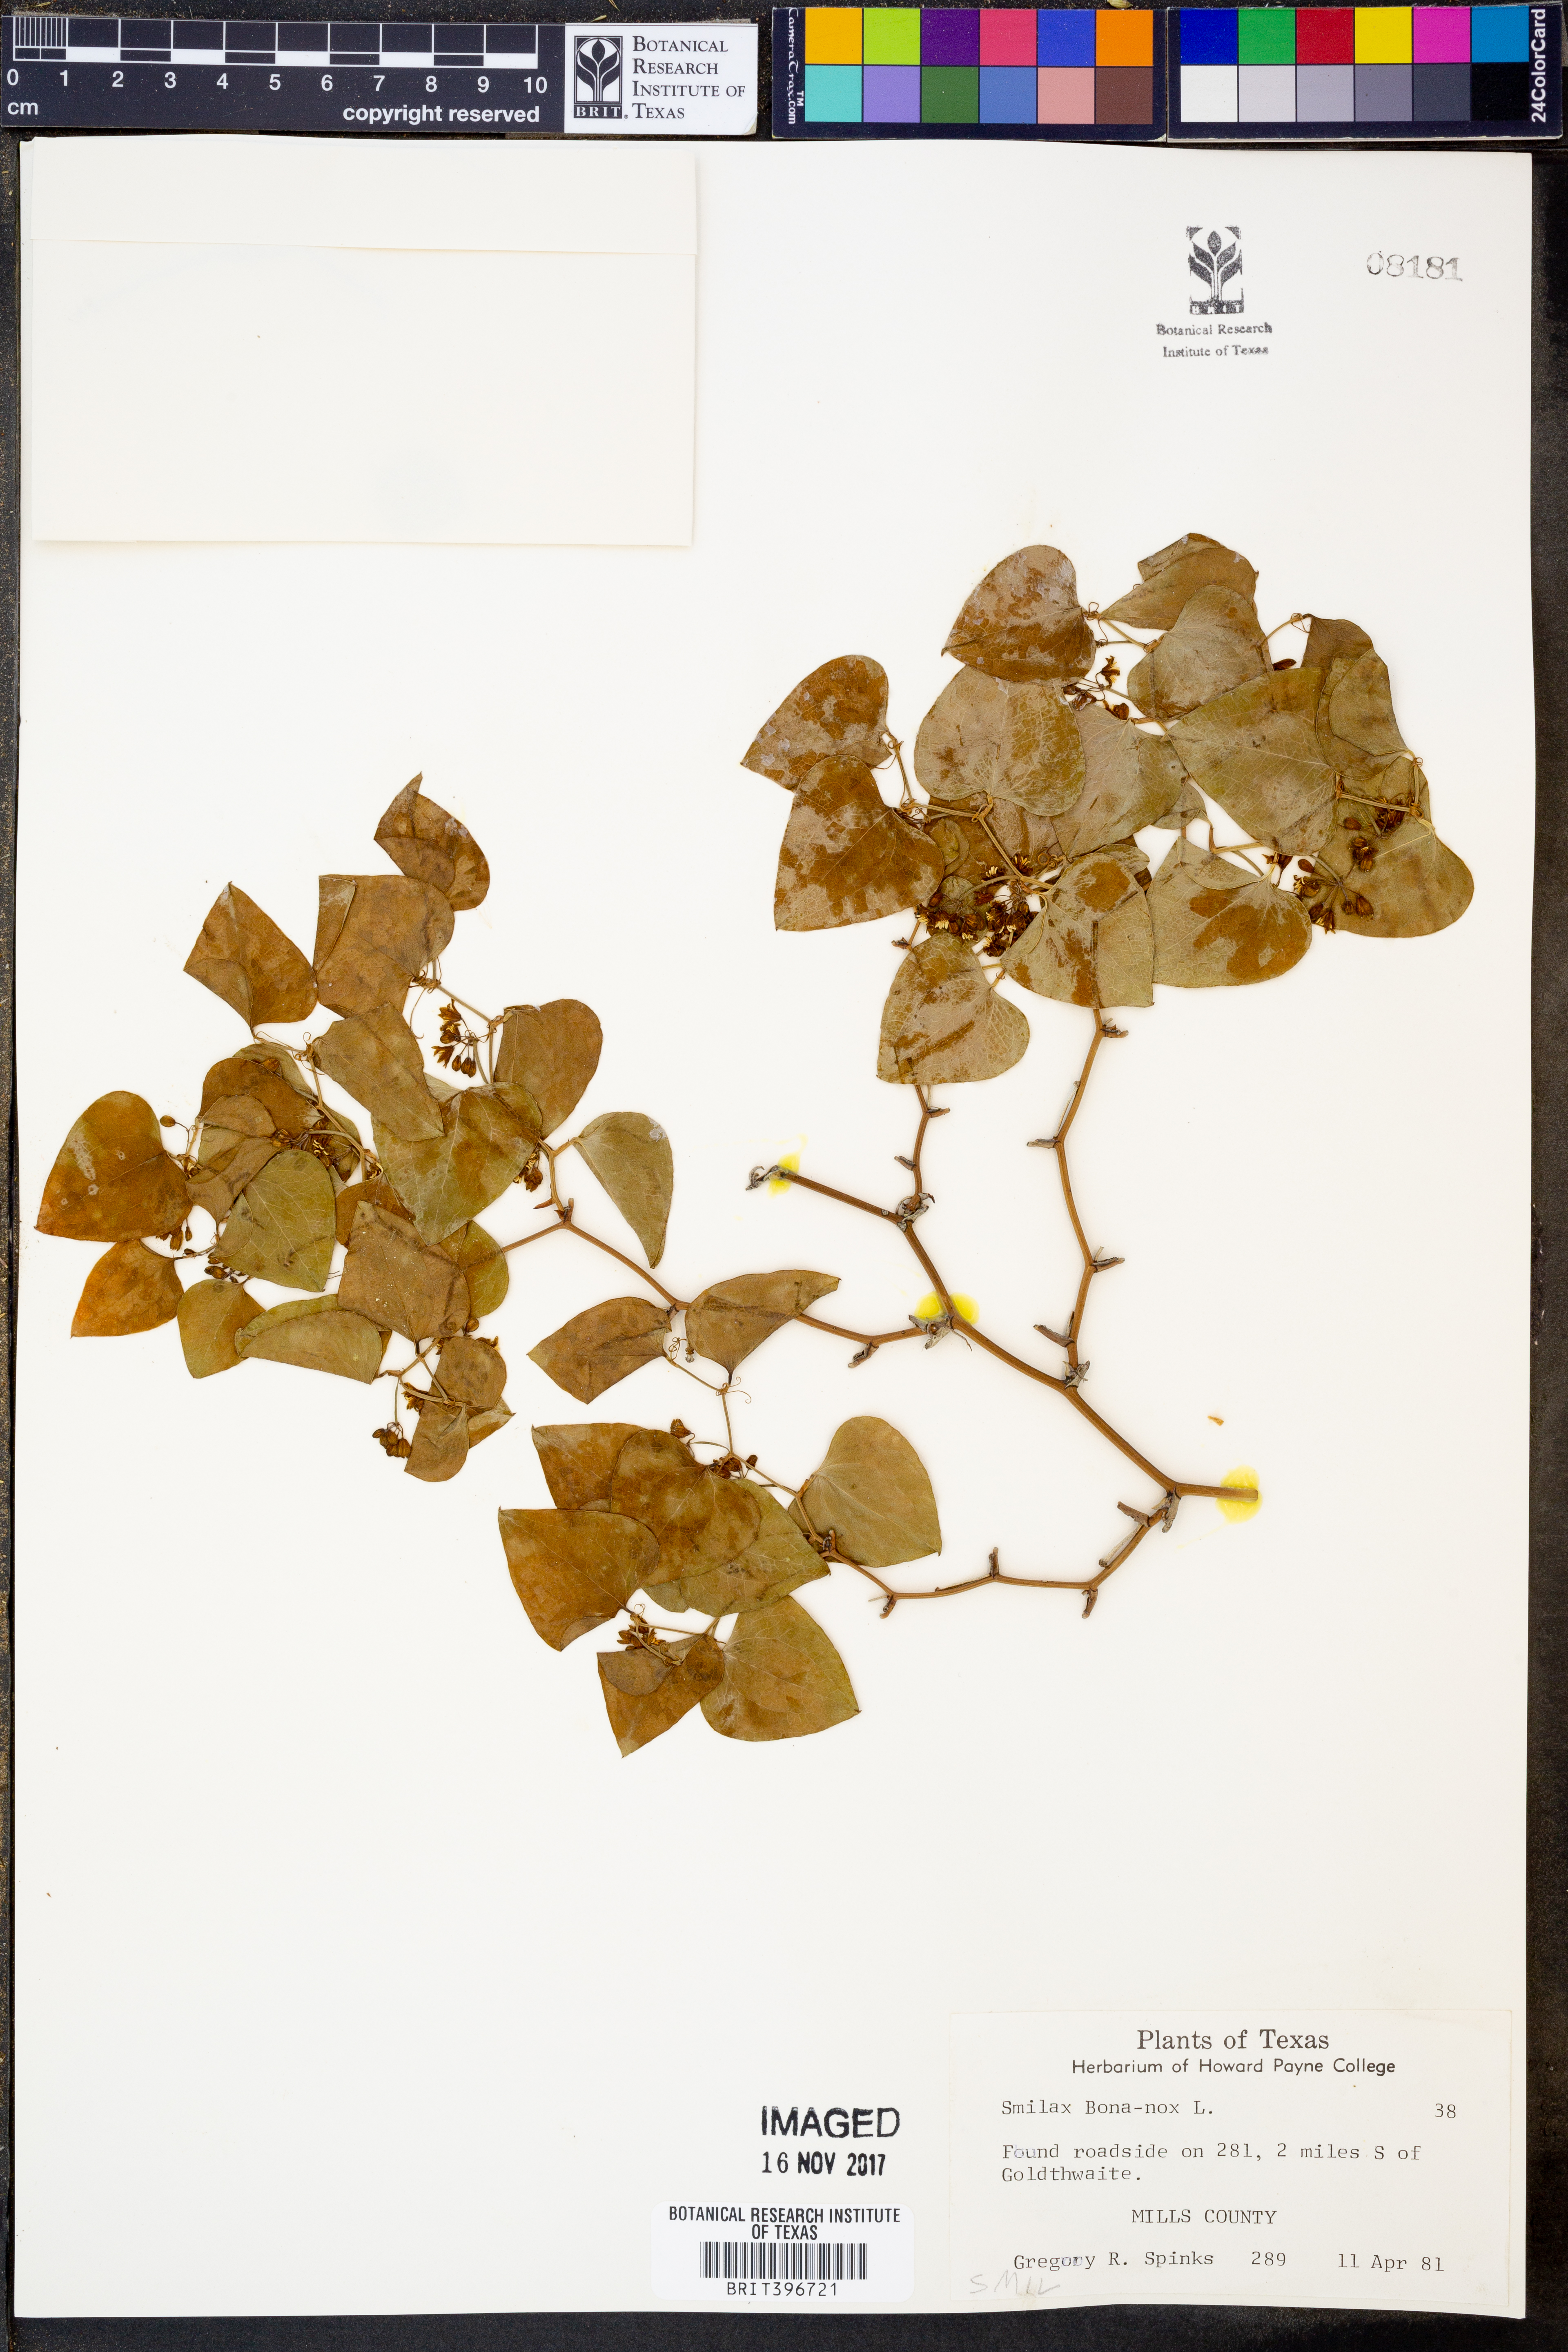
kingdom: Plantae
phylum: Tracheophyta
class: Liliopsida
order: Liliales
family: Smilacaceae
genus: Smilax
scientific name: Smilax bona-nox
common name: Catbrier
